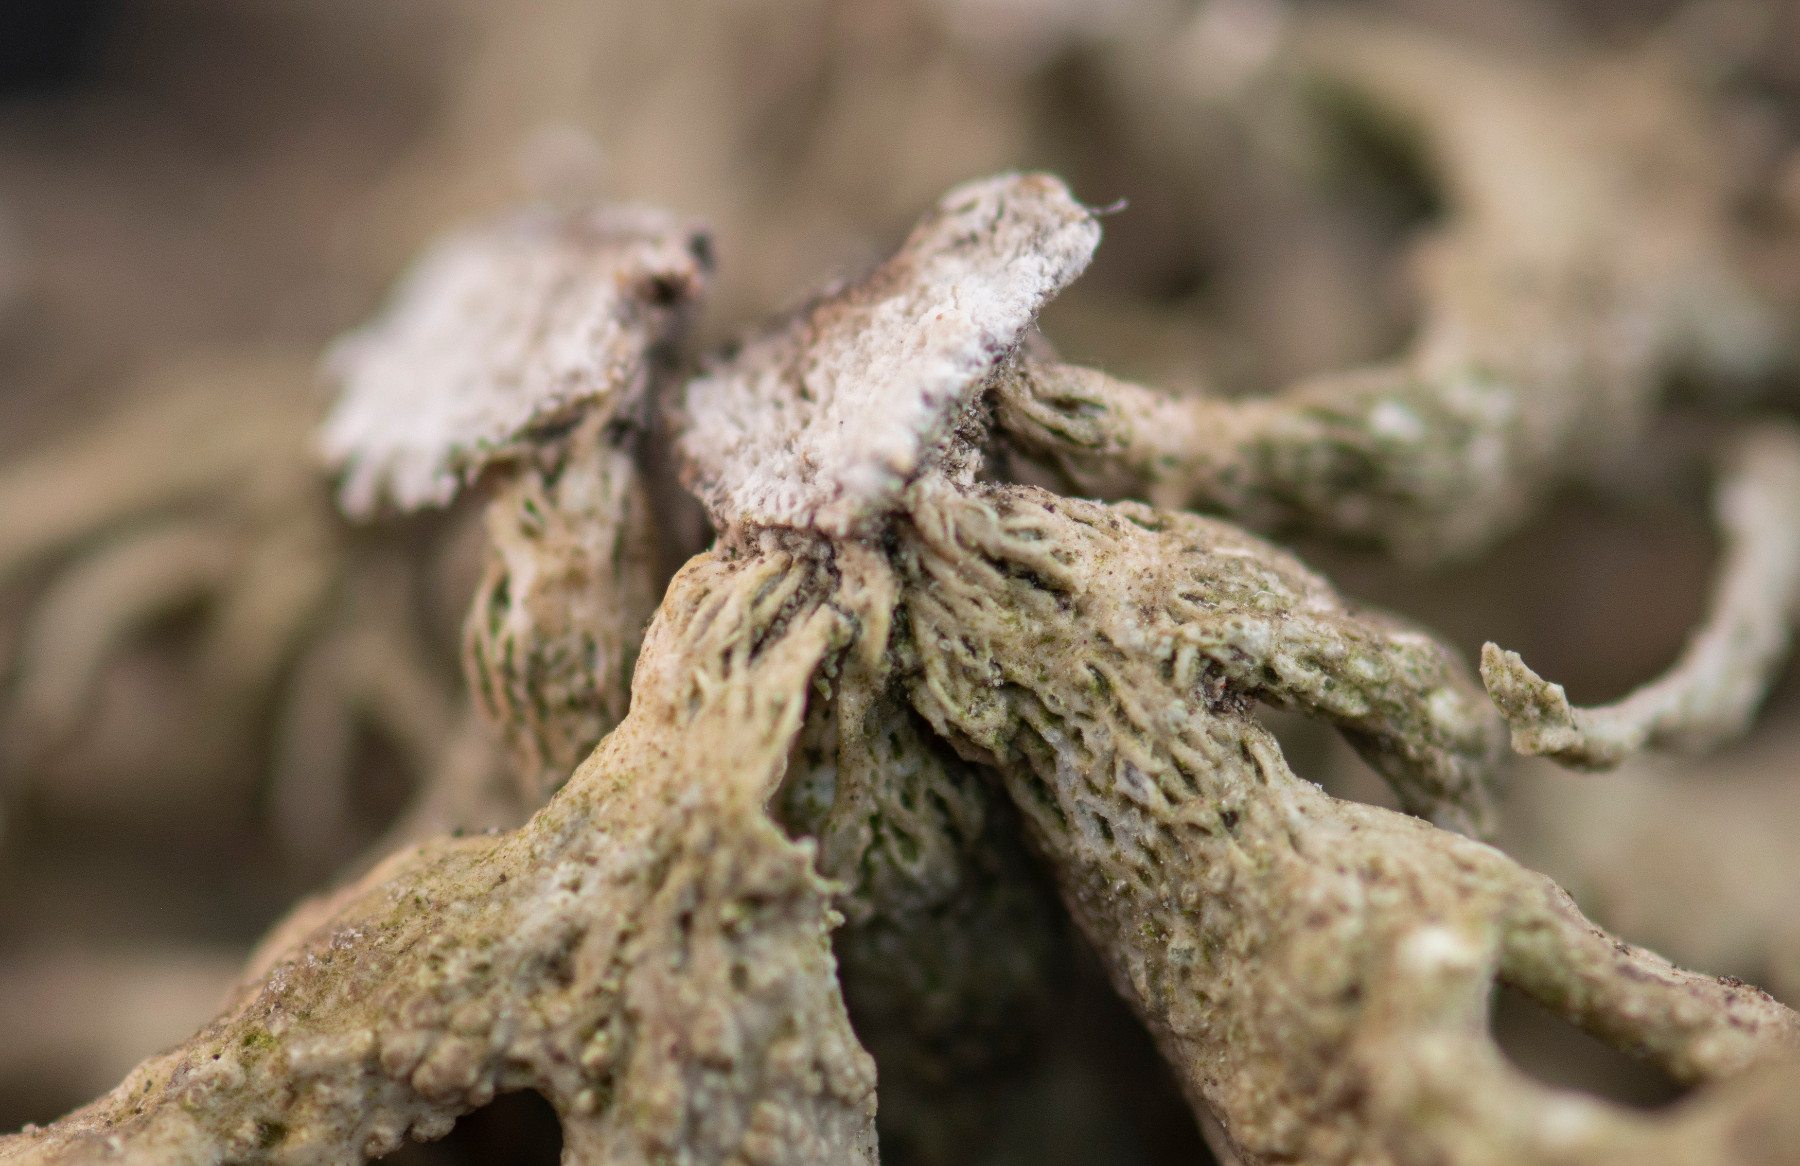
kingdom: Fungi
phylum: Ascomycota
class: Lecanoromycetes
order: Lecanorales
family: Ramalinaceae
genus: Ramalina
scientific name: Ramalina siliquosa
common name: klippe-grenlav
